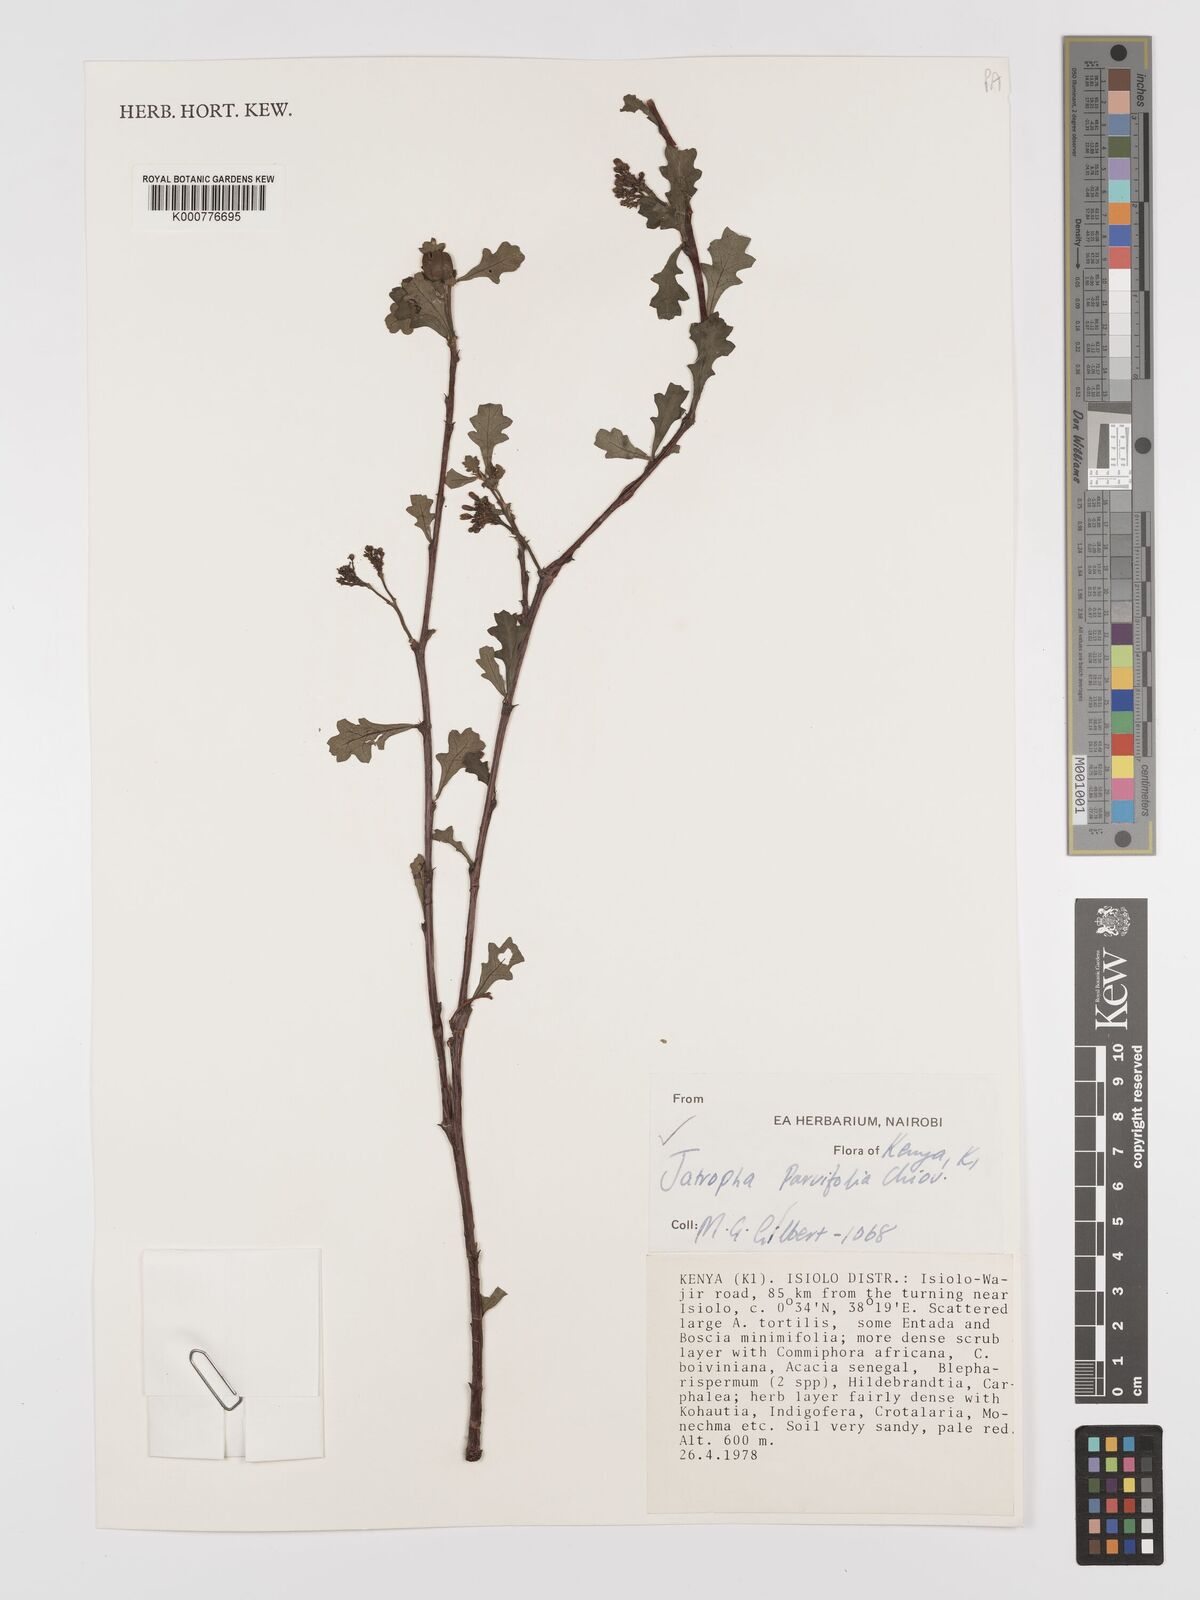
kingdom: Plantae
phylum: Tracheophyta
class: Magnoliopsida
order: Malpighiales
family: Euphorbiaceae
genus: Jatropha
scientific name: Jatropha rivae
